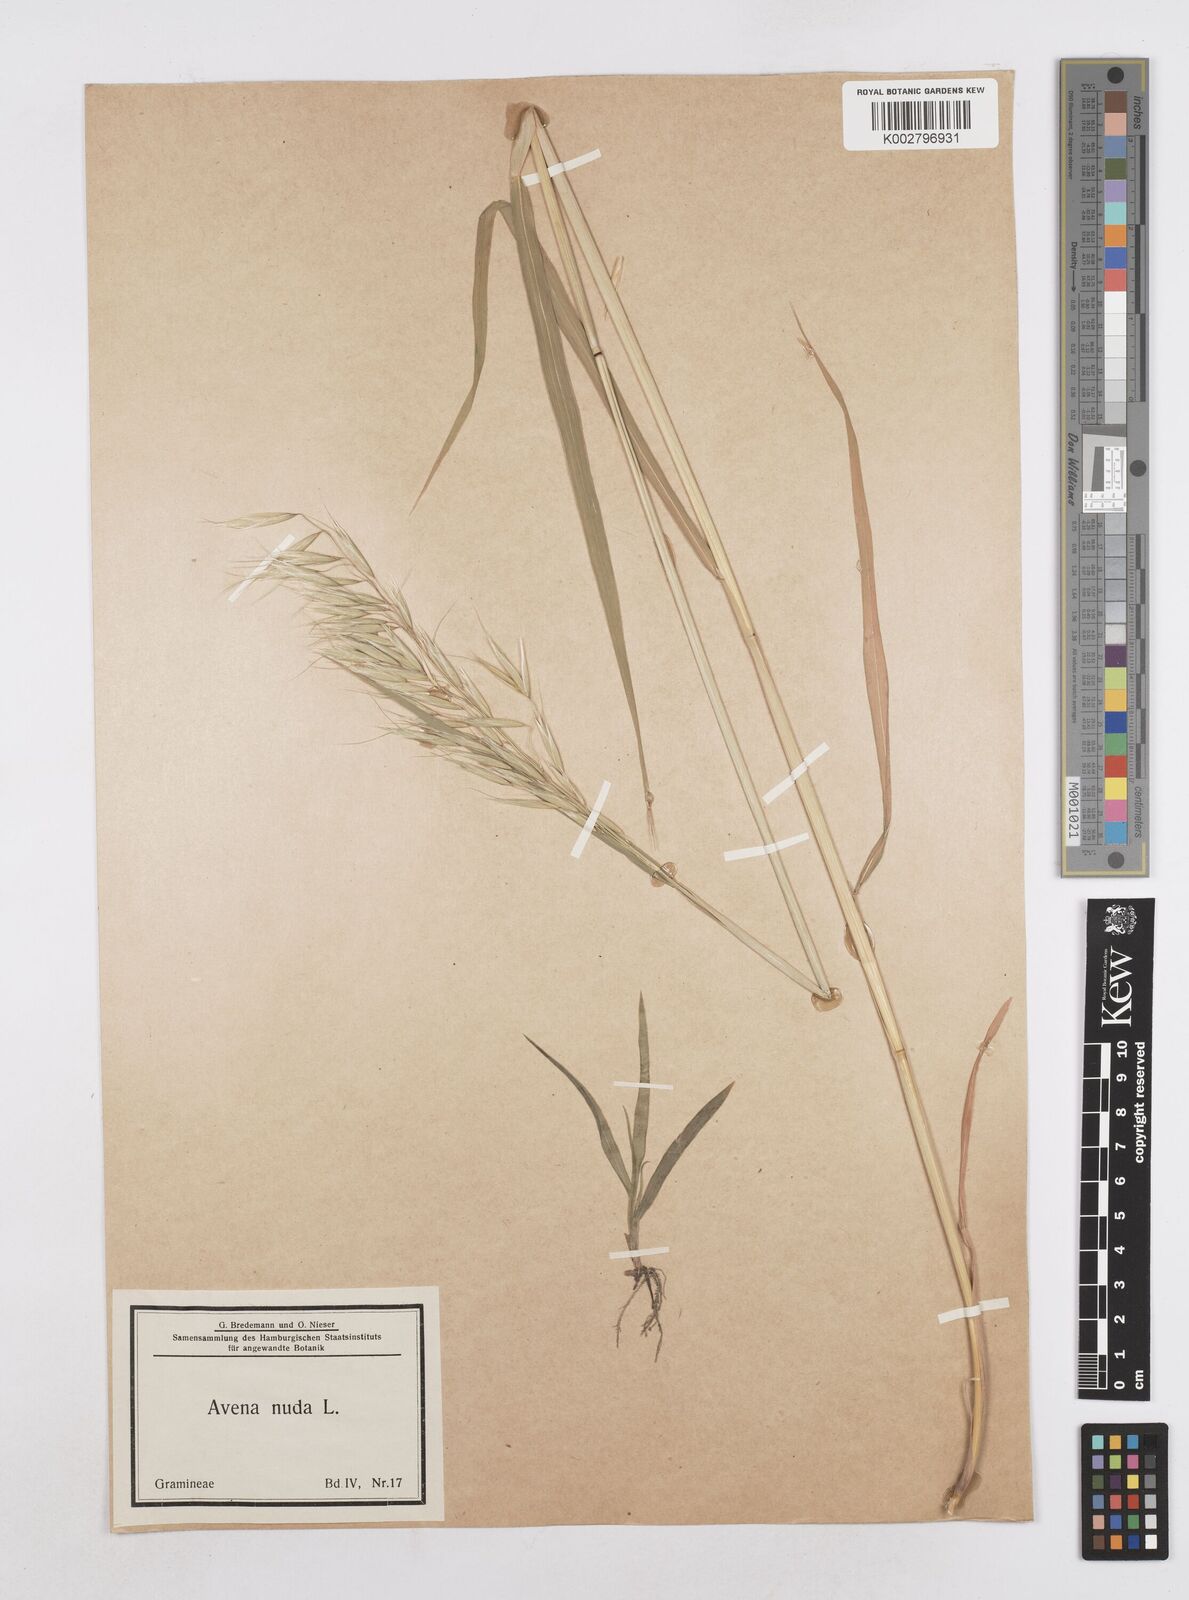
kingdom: Plantae
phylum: Tracheophyta
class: Liliopsida
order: Poales
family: Poaceae
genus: Avena
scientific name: Avena nuda
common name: Naked oat
